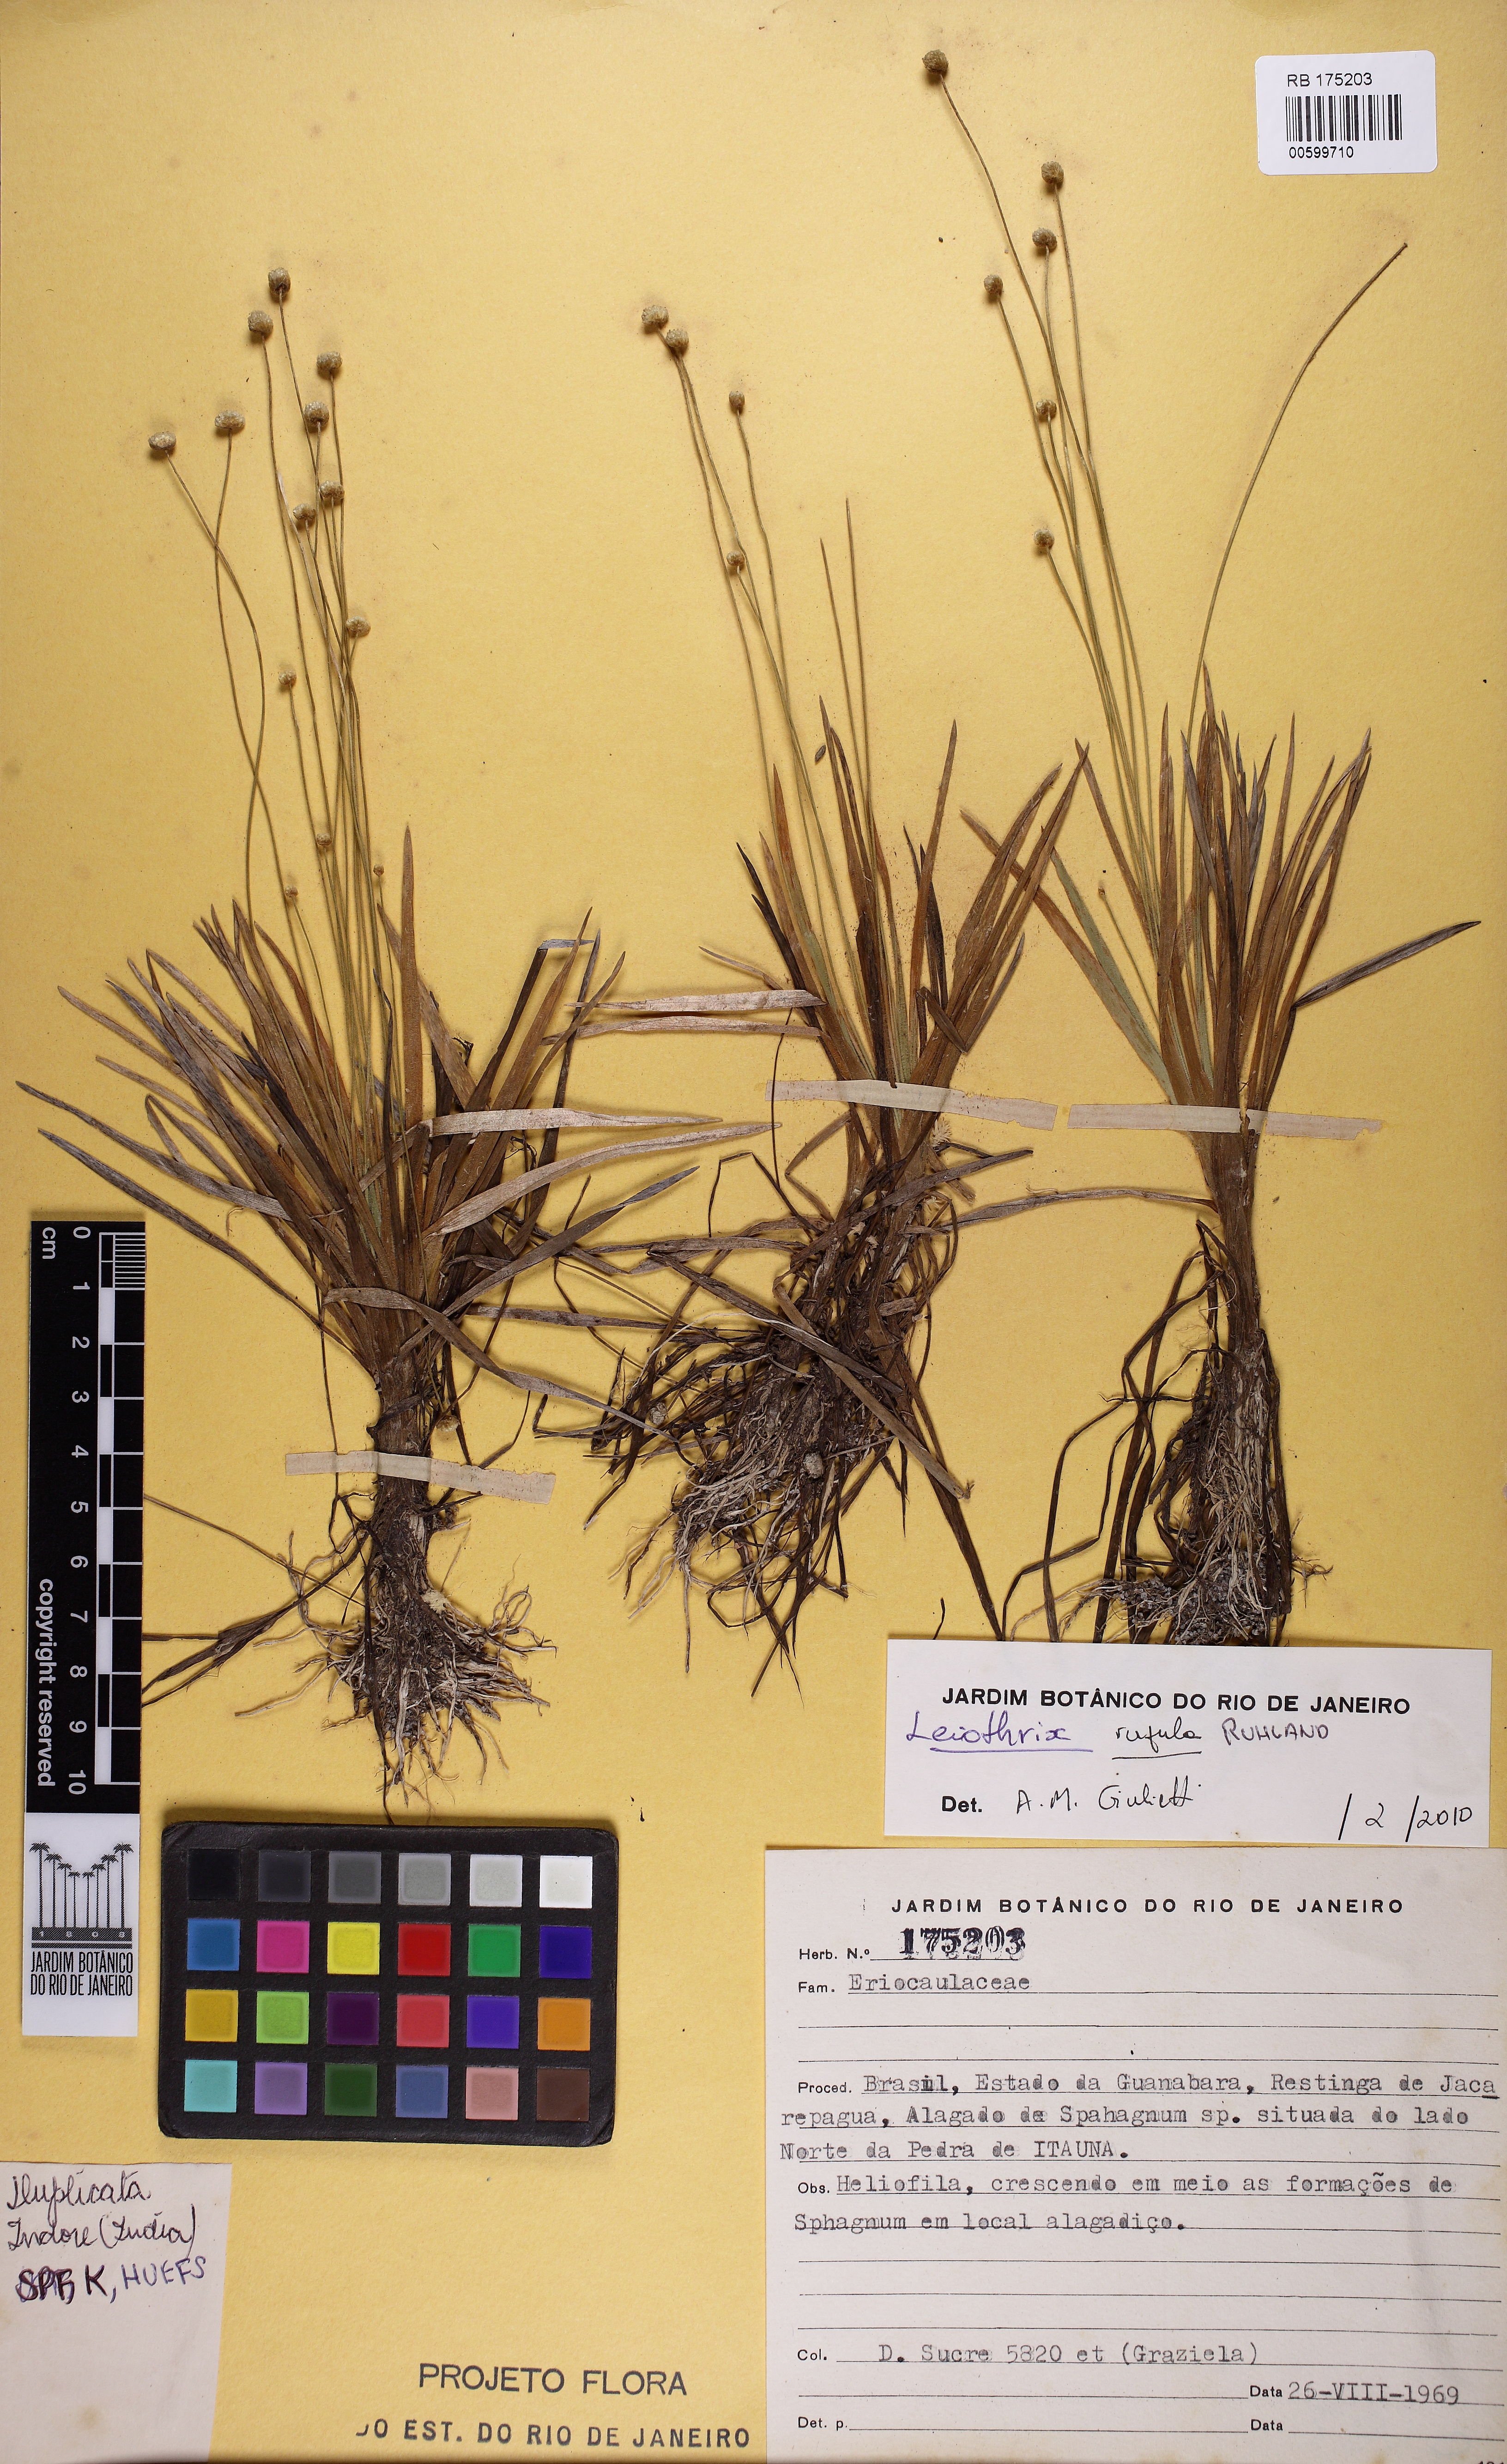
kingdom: Plantae
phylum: Tracheophyta
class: Liliopsida
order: Poales
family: Eriocaulaceae
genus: Leiothrix
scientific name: Leiothrix rufula
